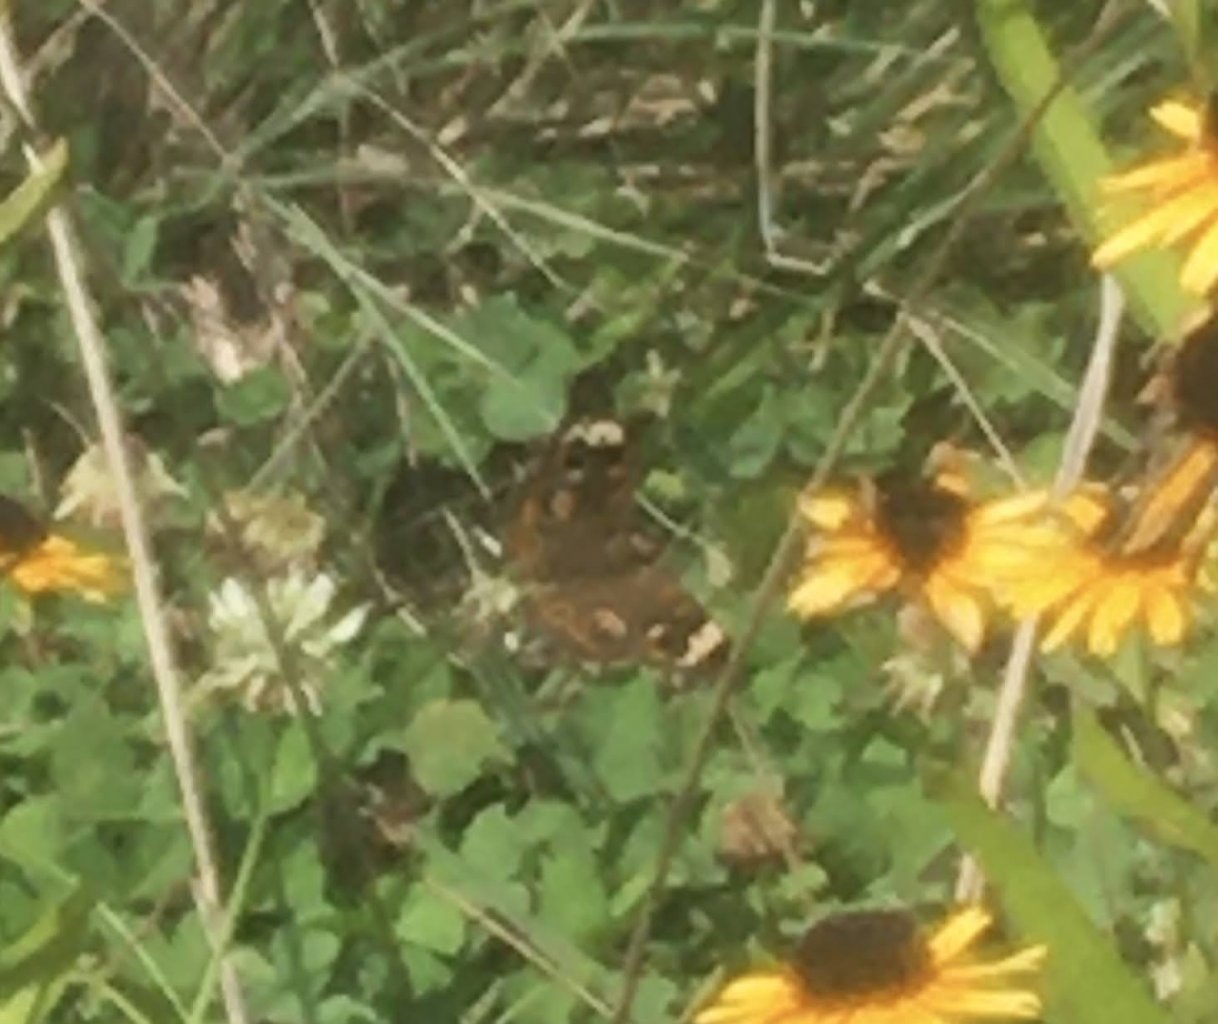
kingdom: Animalia
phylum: Arthropoda
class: Insecta
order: Lepidoptera
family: Nymphalidae
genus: Junonia
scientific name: Junonia coenia
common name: Common Buckeye
